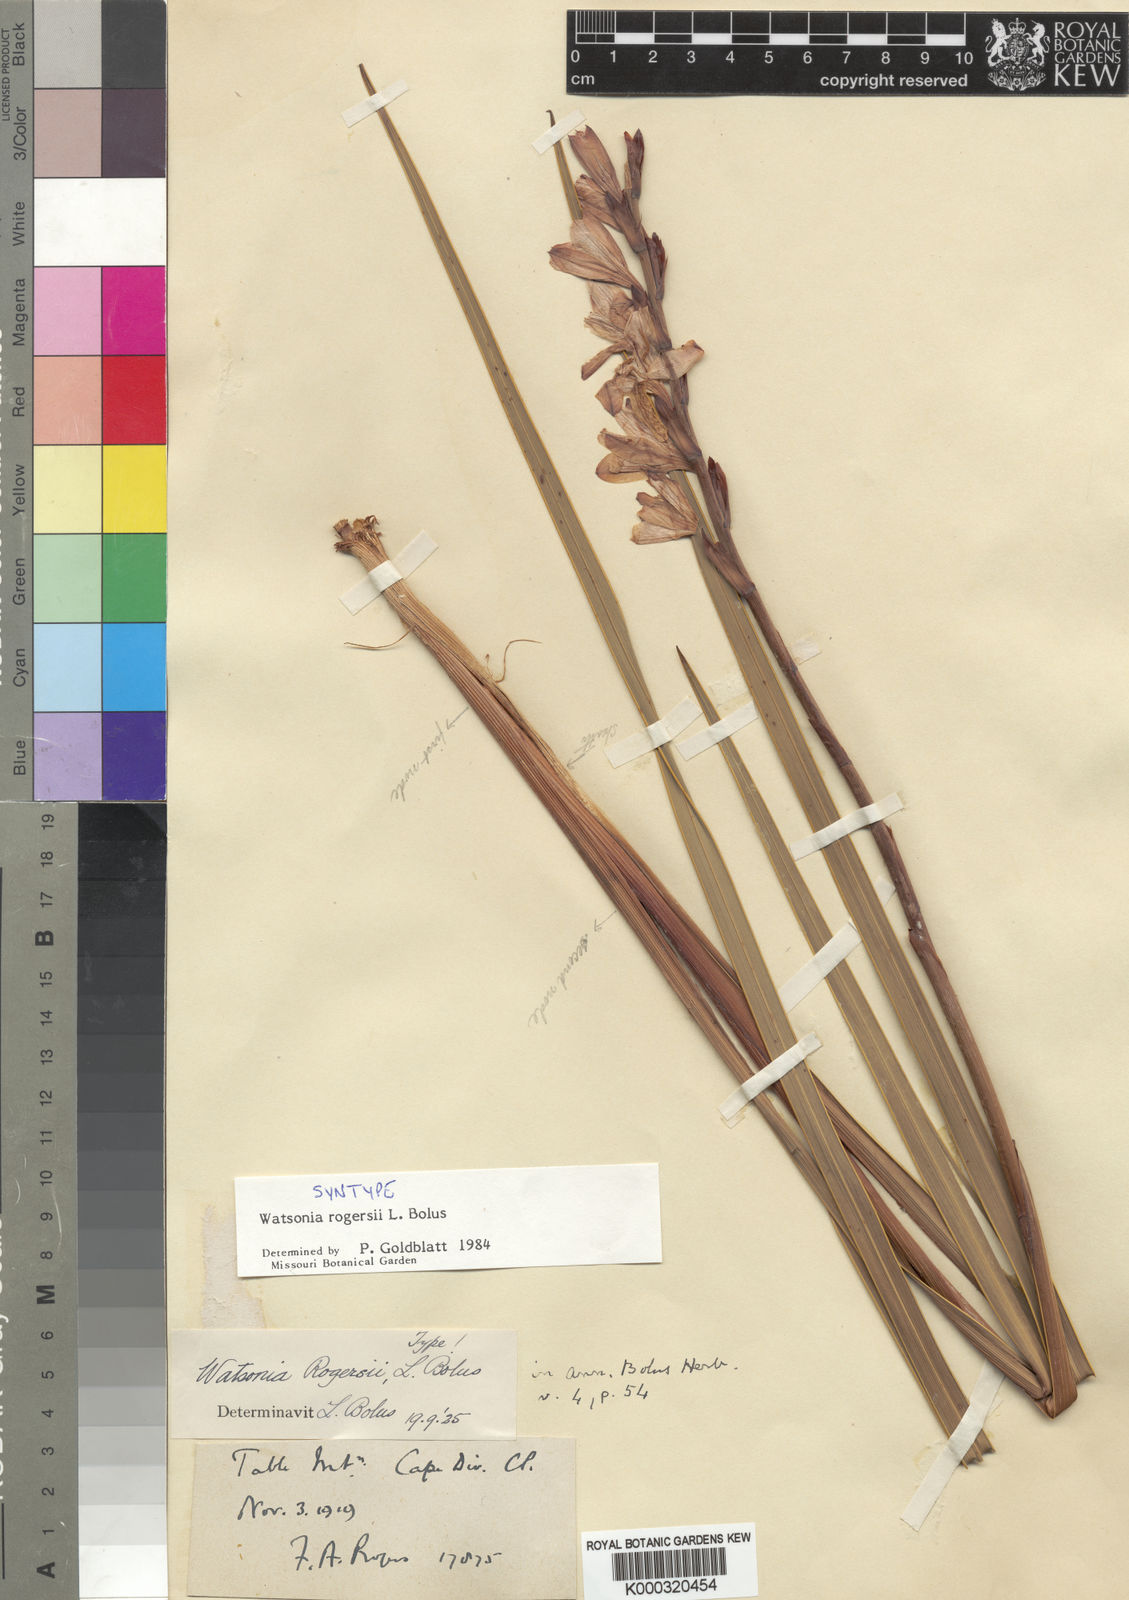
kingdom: Plantae
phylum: Tracheophyta
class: Liliopsida
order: Asparagales
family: Iridaceae
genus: Watsonia
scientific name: Watsonia rogersii
